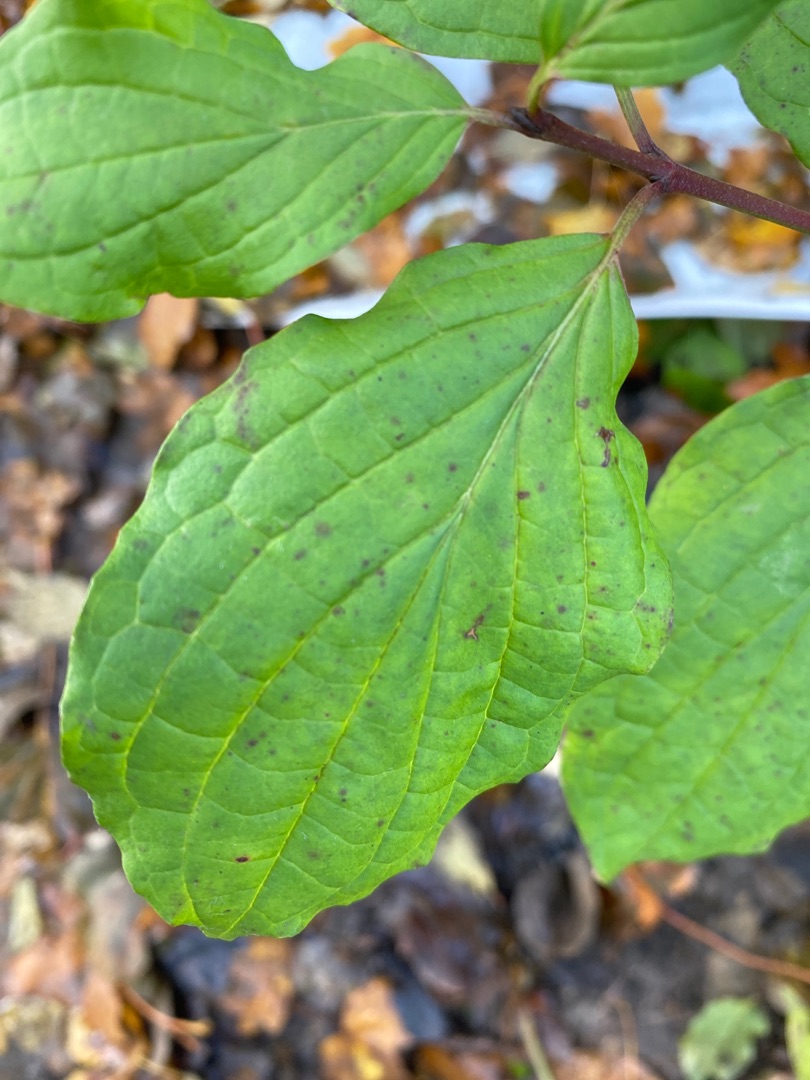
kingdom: Plantae
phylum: Tracheophyta
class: Magnoliopsida
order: Cornales
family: Cornaceae
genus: Cornus
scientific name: Cornus sanguinea
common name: Rød kornel
